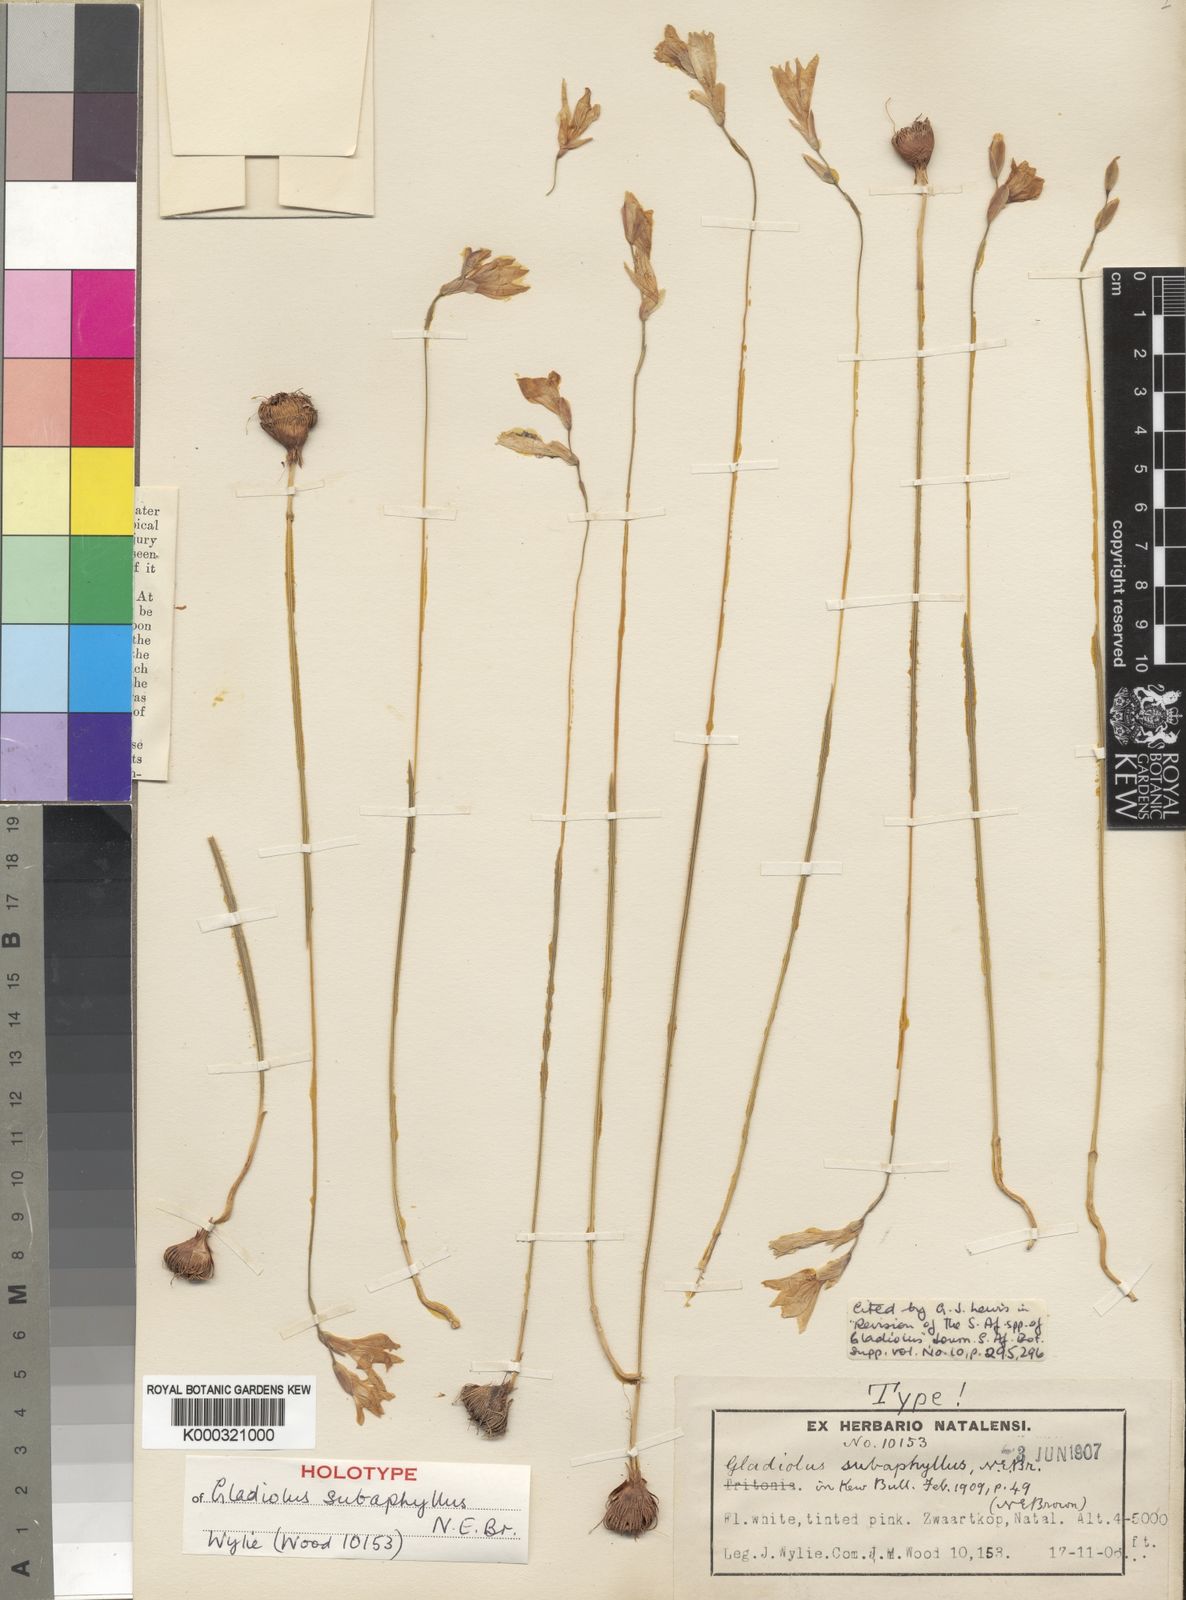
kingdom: Plantae
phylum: Tracheophyta
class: Liliopsida
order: Asparagales
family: Iridaceae
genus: Gladiolus
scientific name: Gladiolus parvulus
